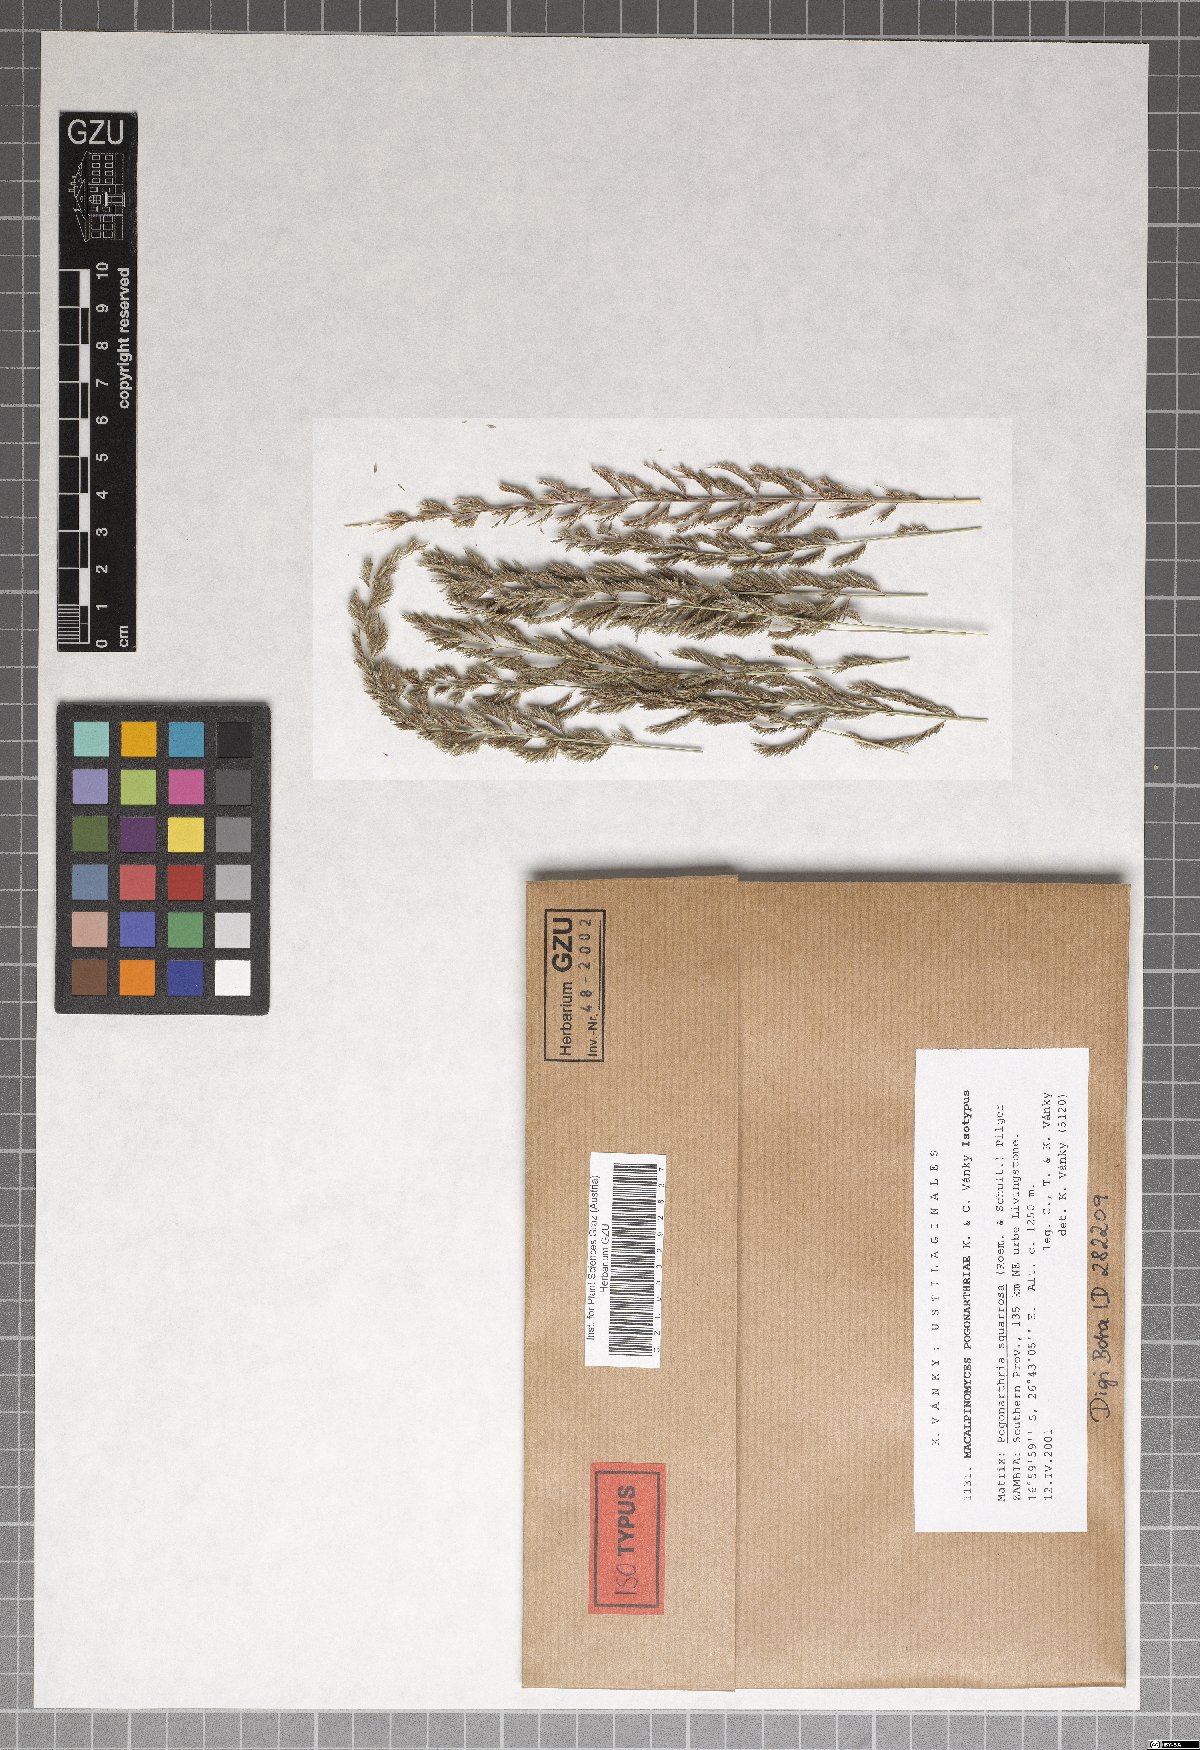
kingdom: Fungi
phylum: Basidiomycota
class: Ustilaginomycetes
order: Ustilaginales
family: Ustilaginaceae
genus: Macalpinomyces
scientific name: Macalpinomyces pogonarthriae
